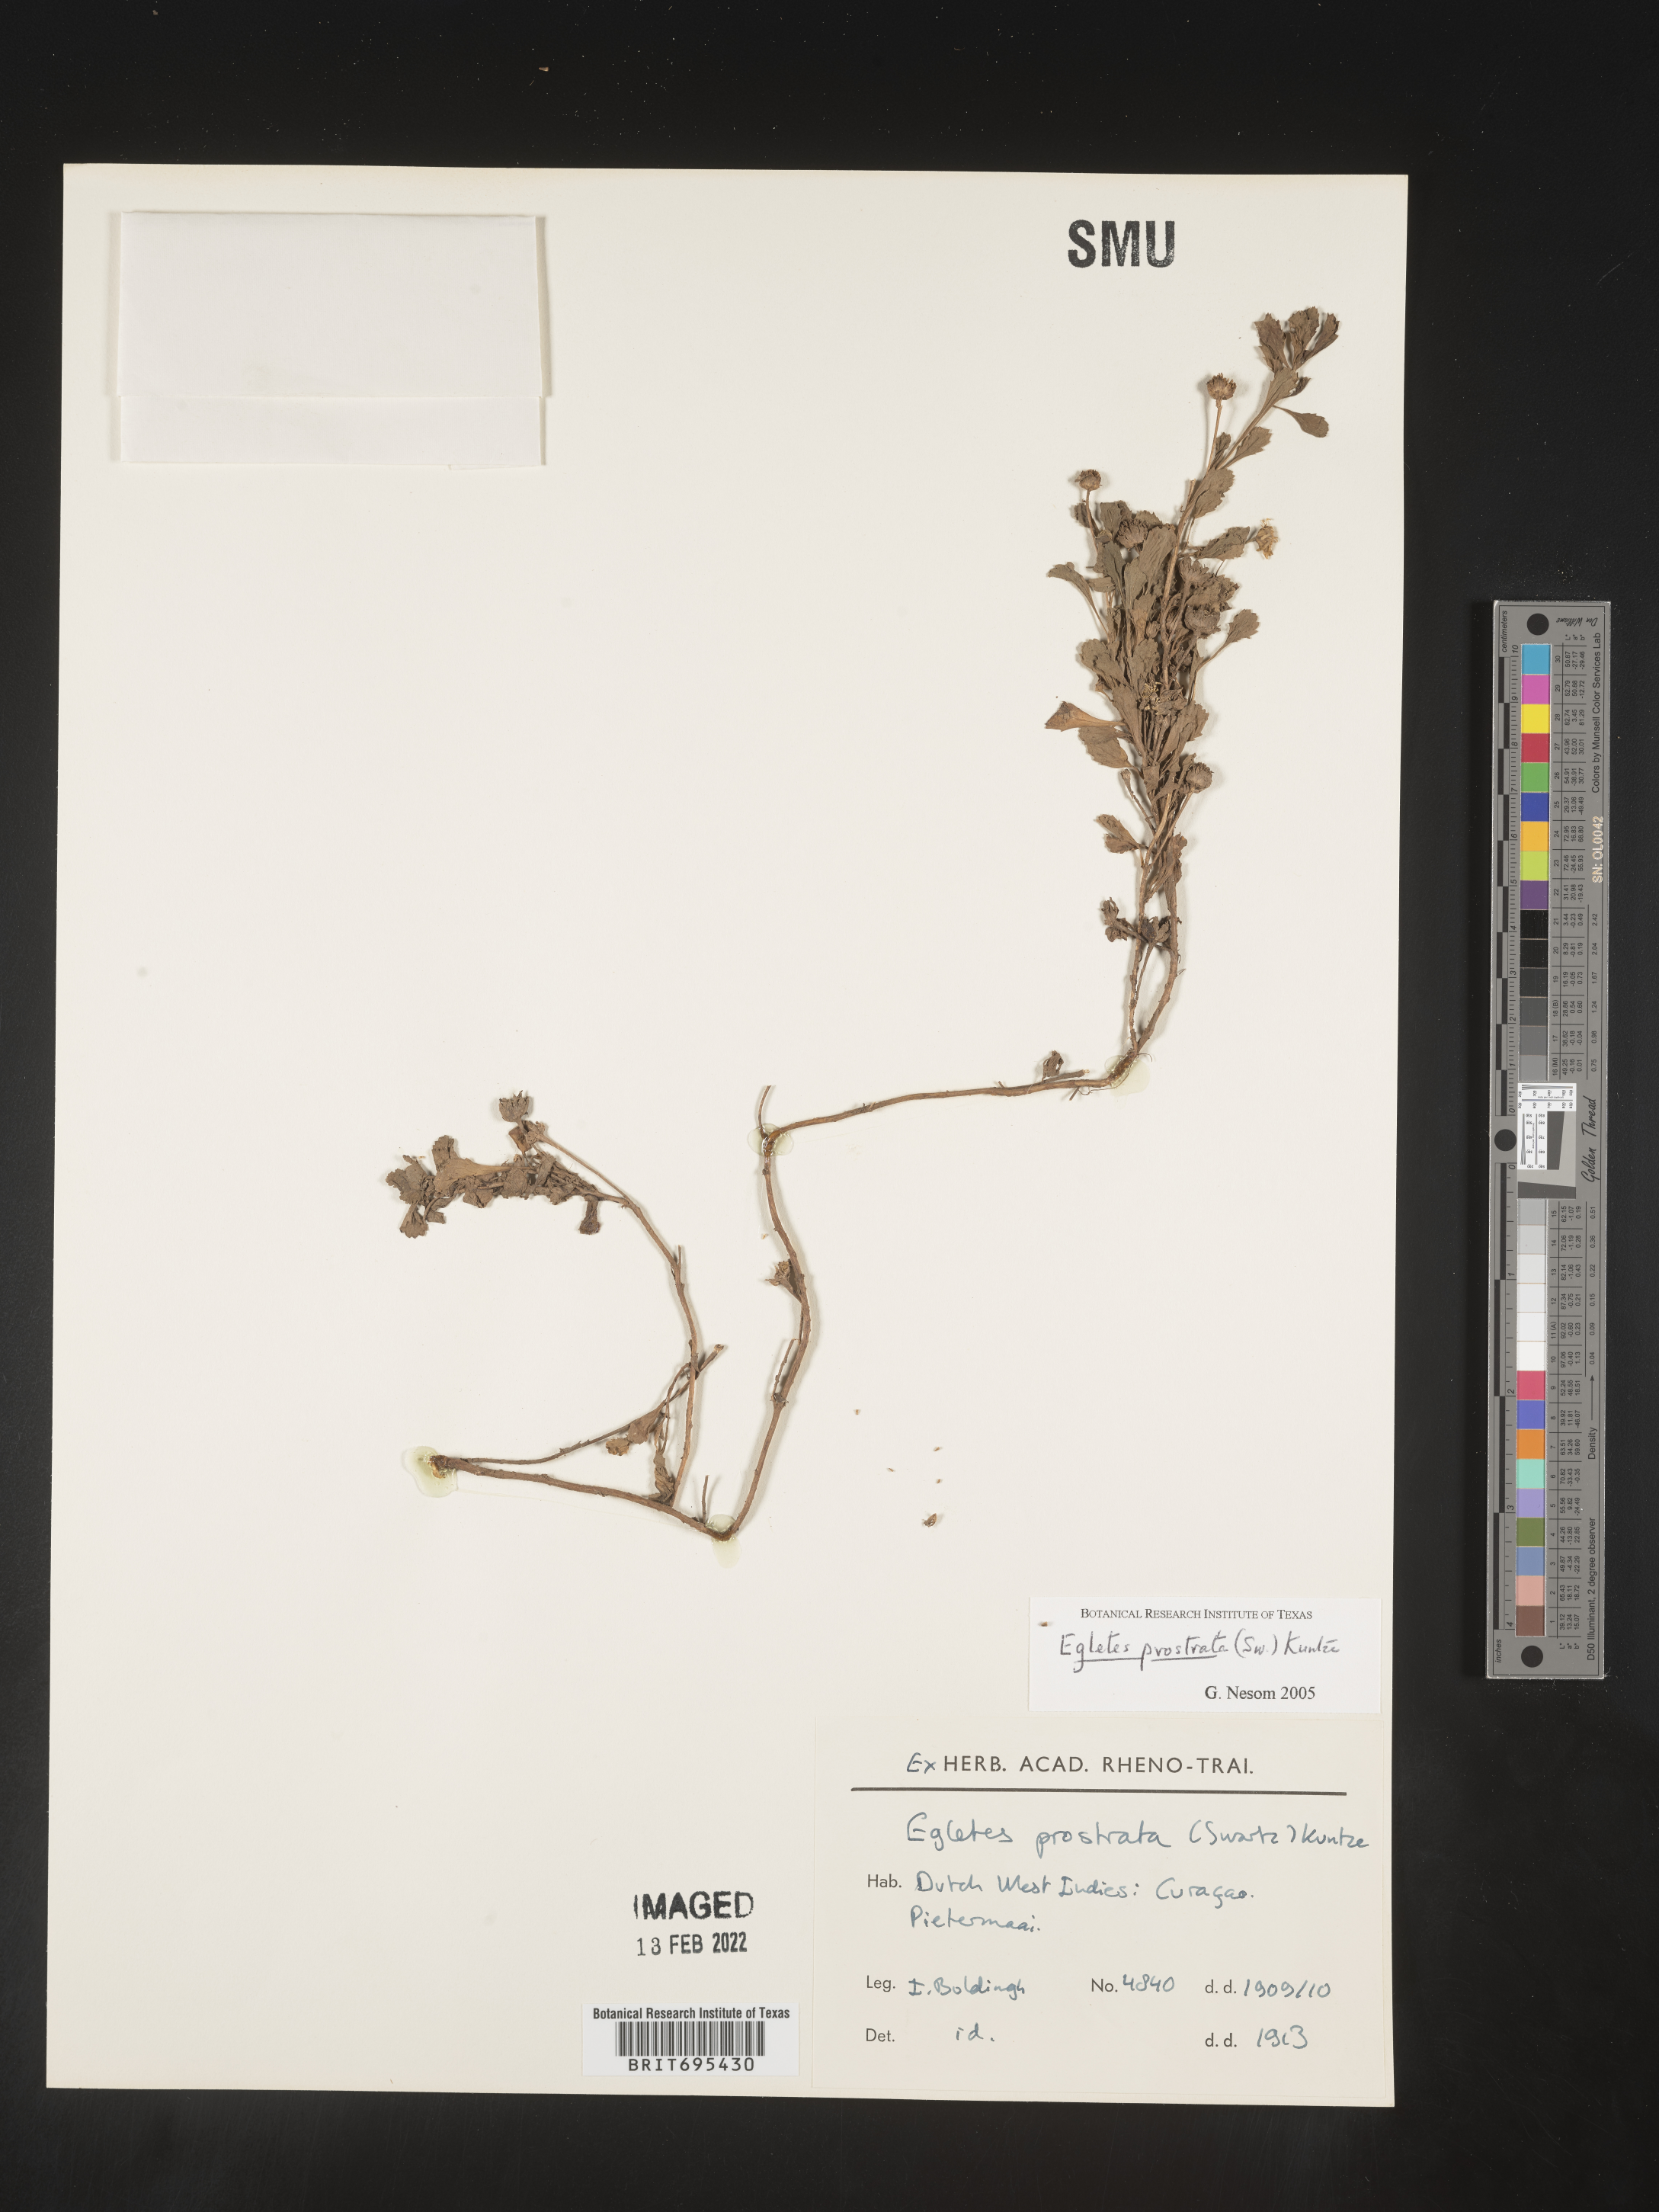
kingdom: Plantae
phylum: Tracheophyta
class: Magnoliopsida
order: Asterales
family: Asteraceae
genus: Egletes
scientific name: Egletes
